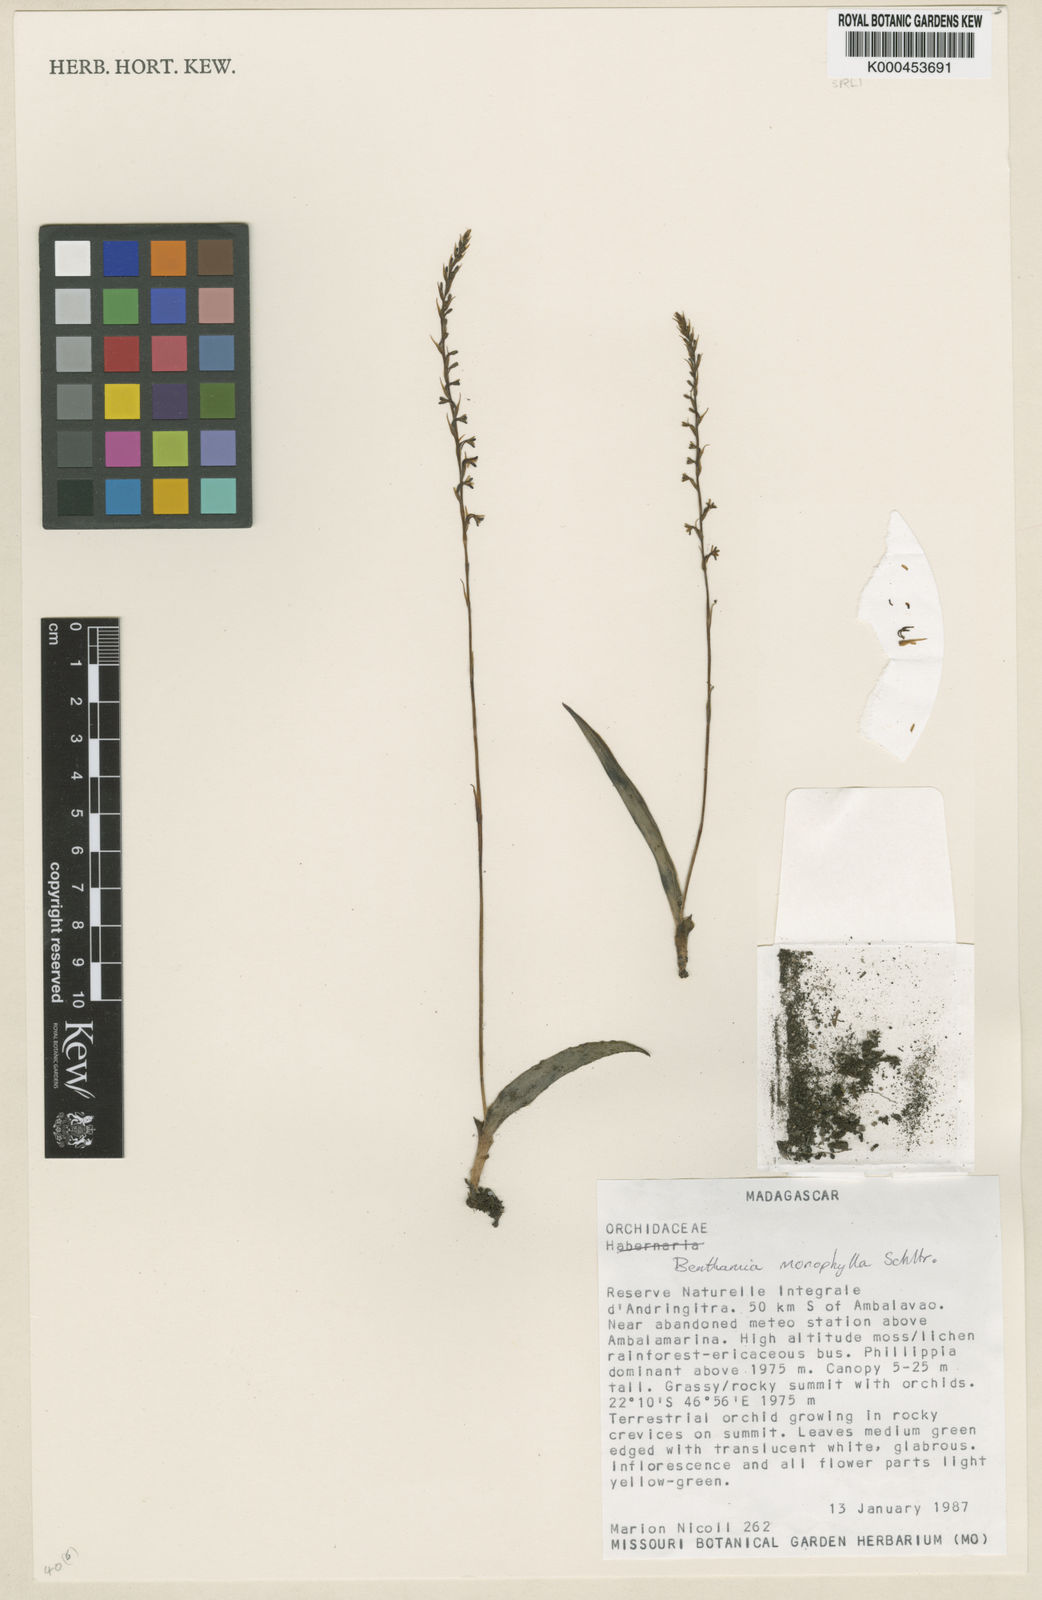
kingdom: Plantae
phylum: Tracheophyta
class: Liliopsida
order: Asparagales
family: Orchidaceae
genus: Benthamia
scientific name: Benthamia monophylla
